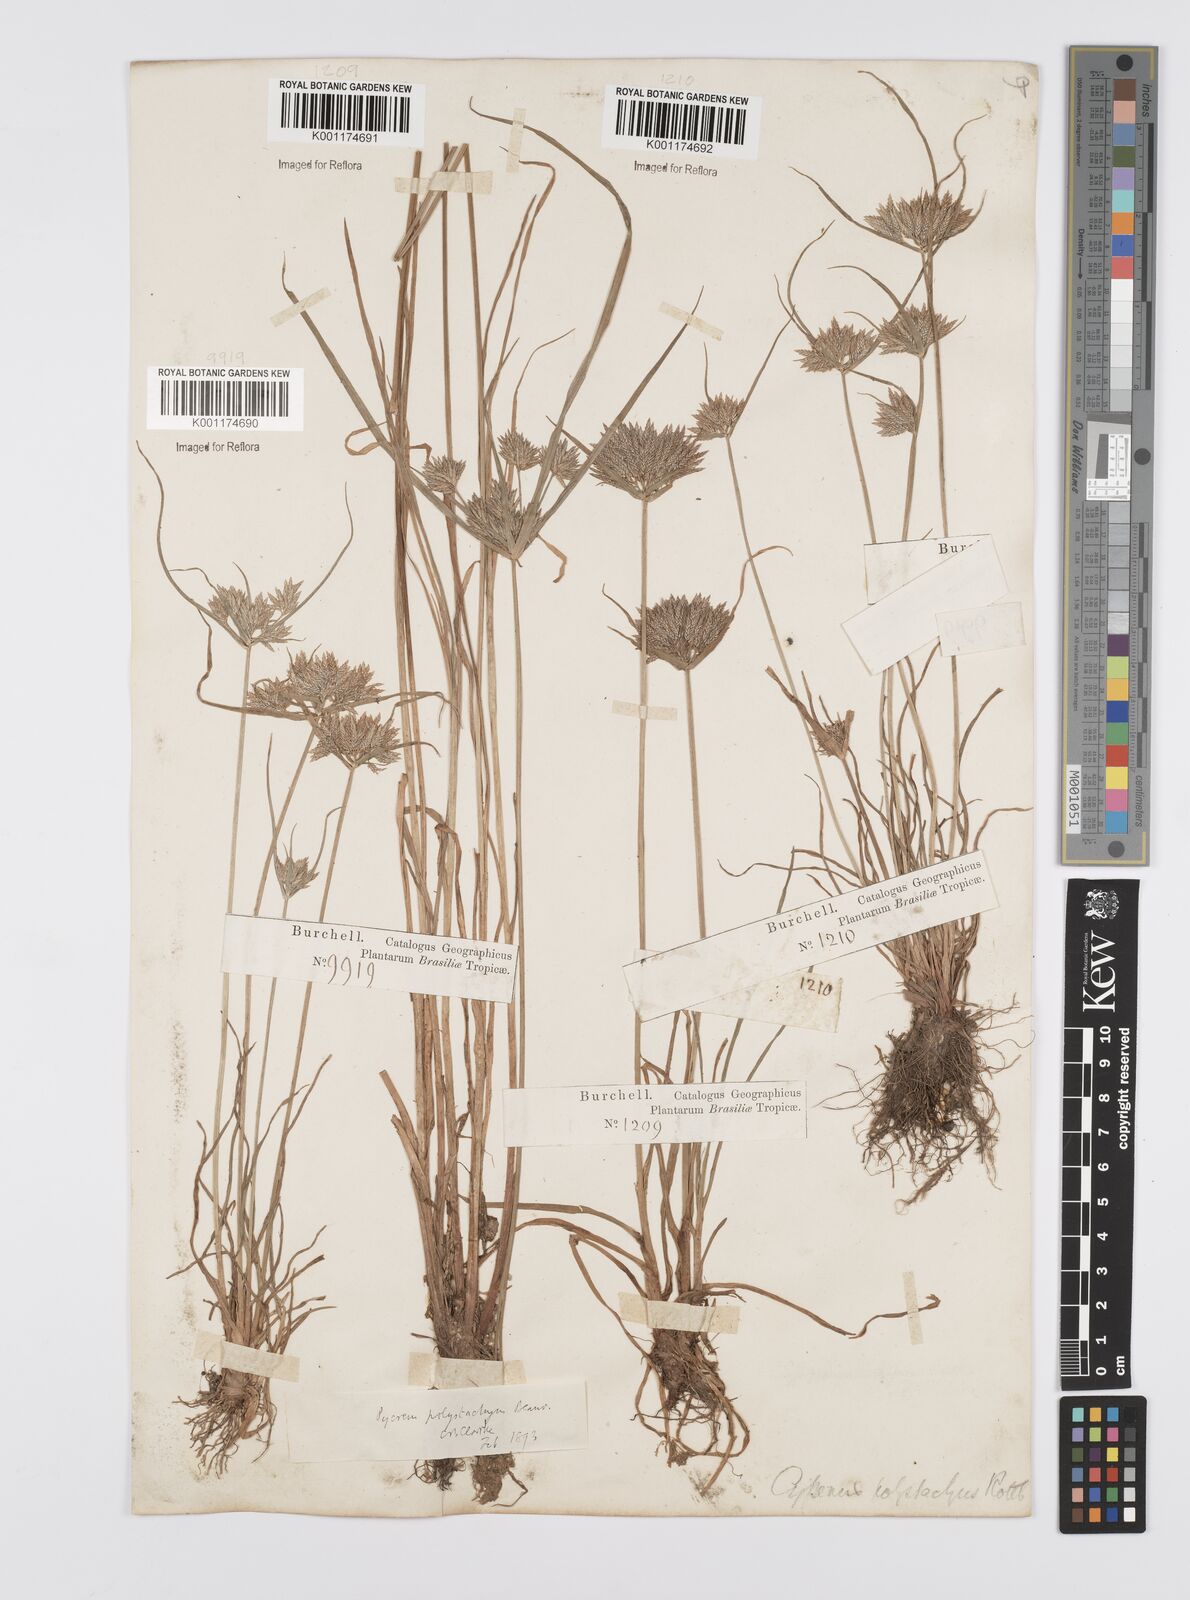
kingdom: Plantae
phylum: Tracheophyta
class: Liliopsida
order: Poales
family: Cyperaceae
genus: Cyperus
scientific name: Cyperus polystachyos
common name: Bunchy flat sedge
